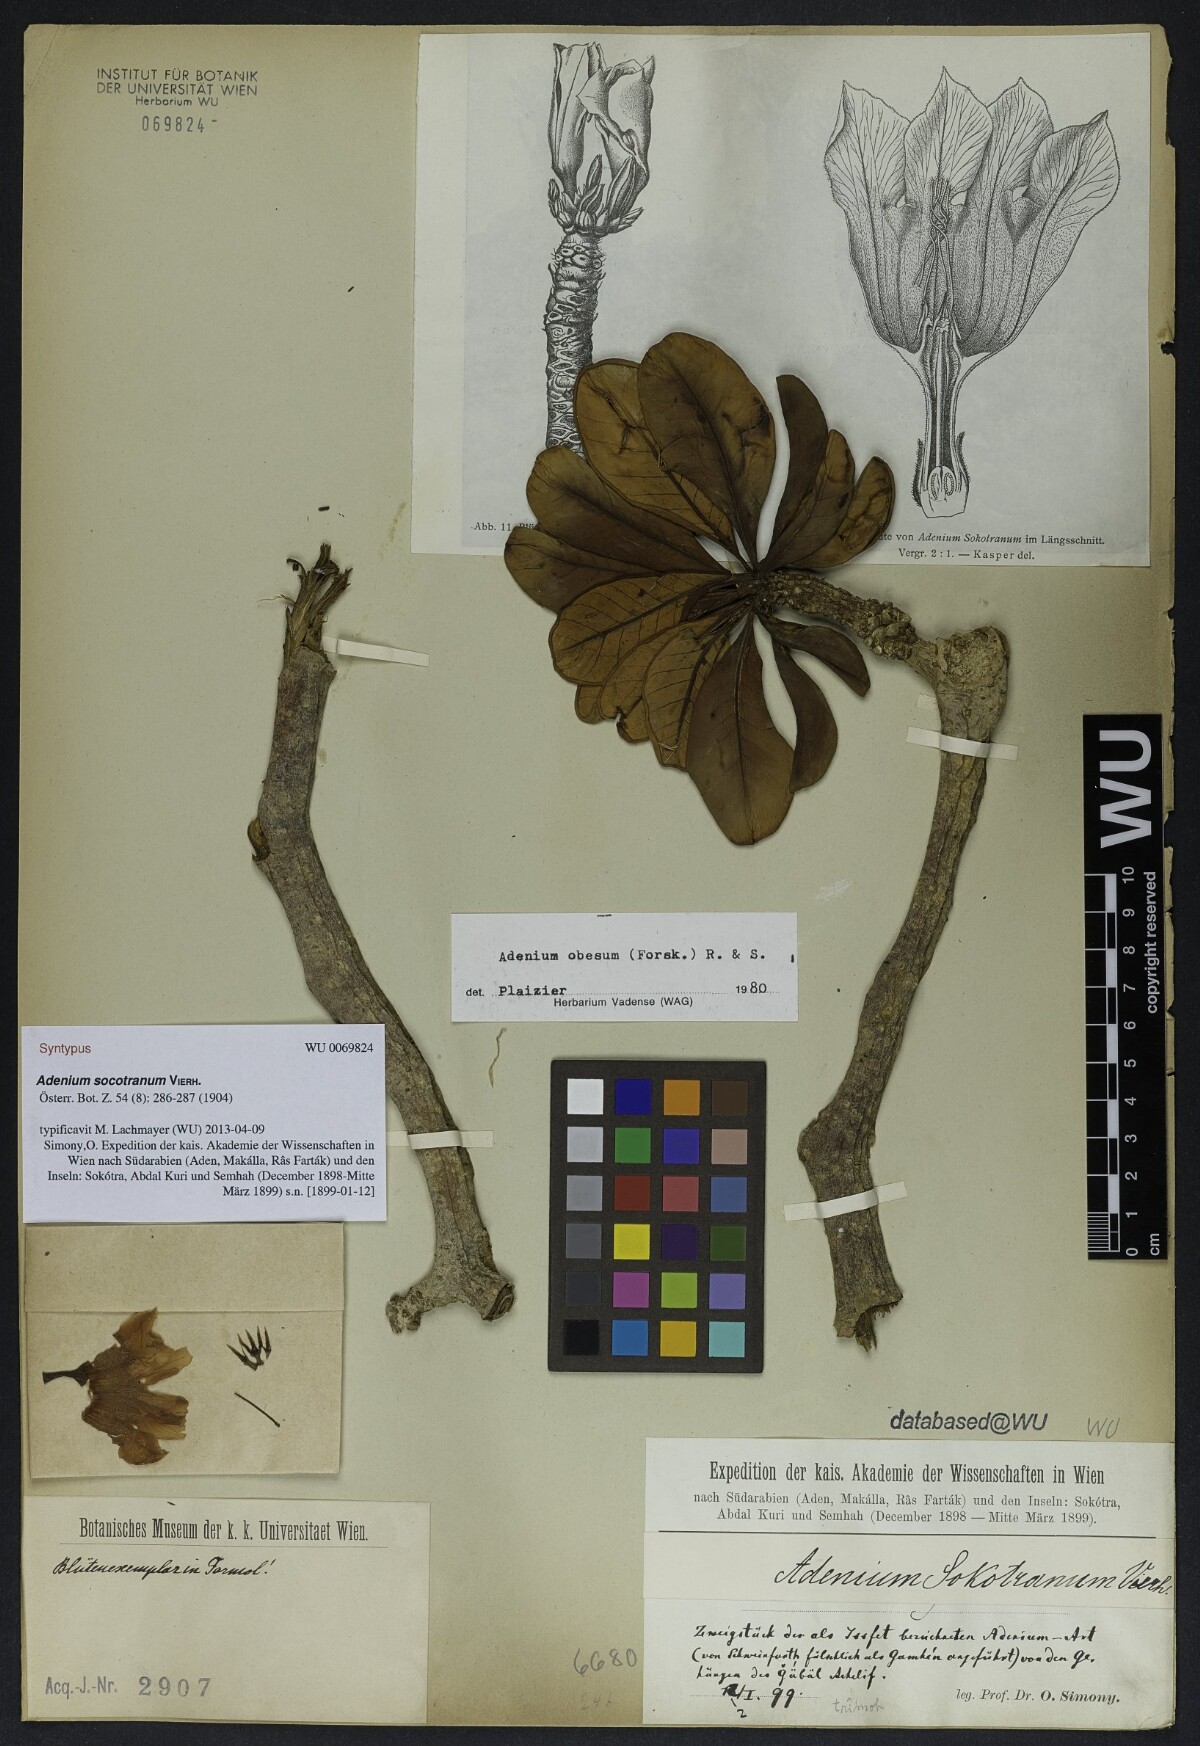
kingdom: Plantae
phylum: Tracheophyta
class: Magnoliopsida
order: Gentianales
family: Apocynaceae
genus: Adenium
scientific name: Adenium obesum
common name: Desert-rose
